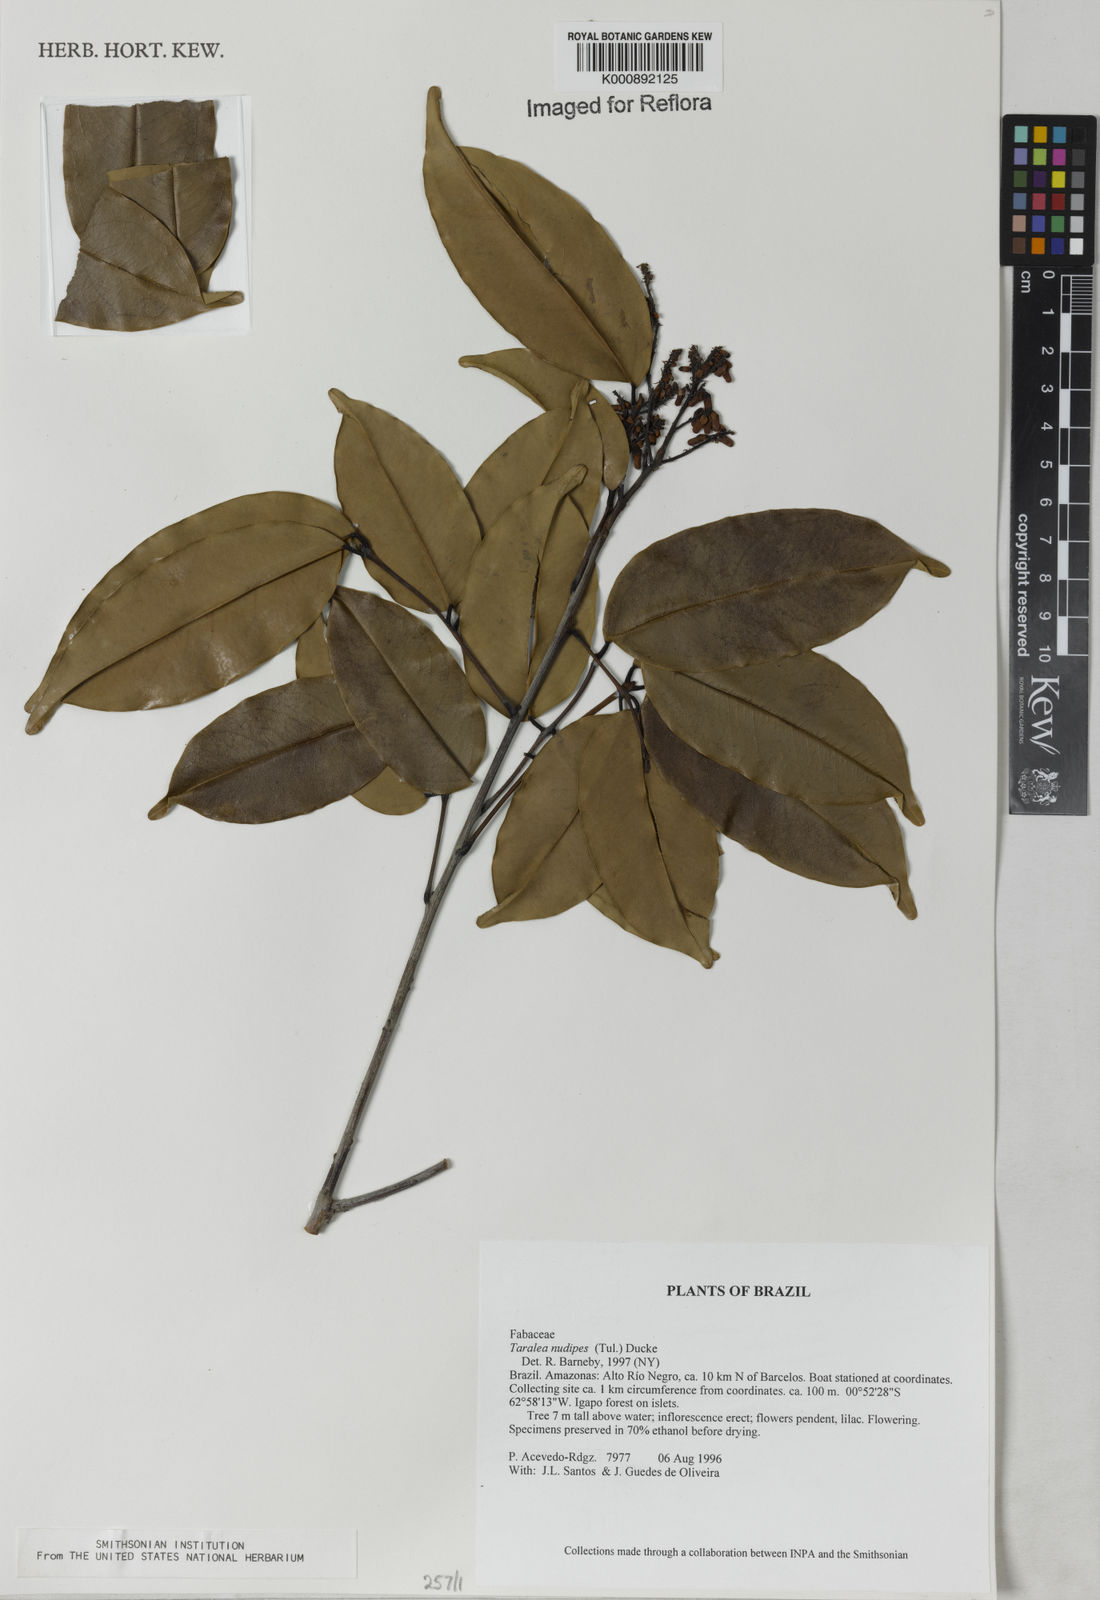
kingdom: Plantae
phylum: Tracheophyta
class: Magnoliopsida
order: Fabales
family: Fabaceae
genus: Taralea
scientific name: Taralea nudipes
